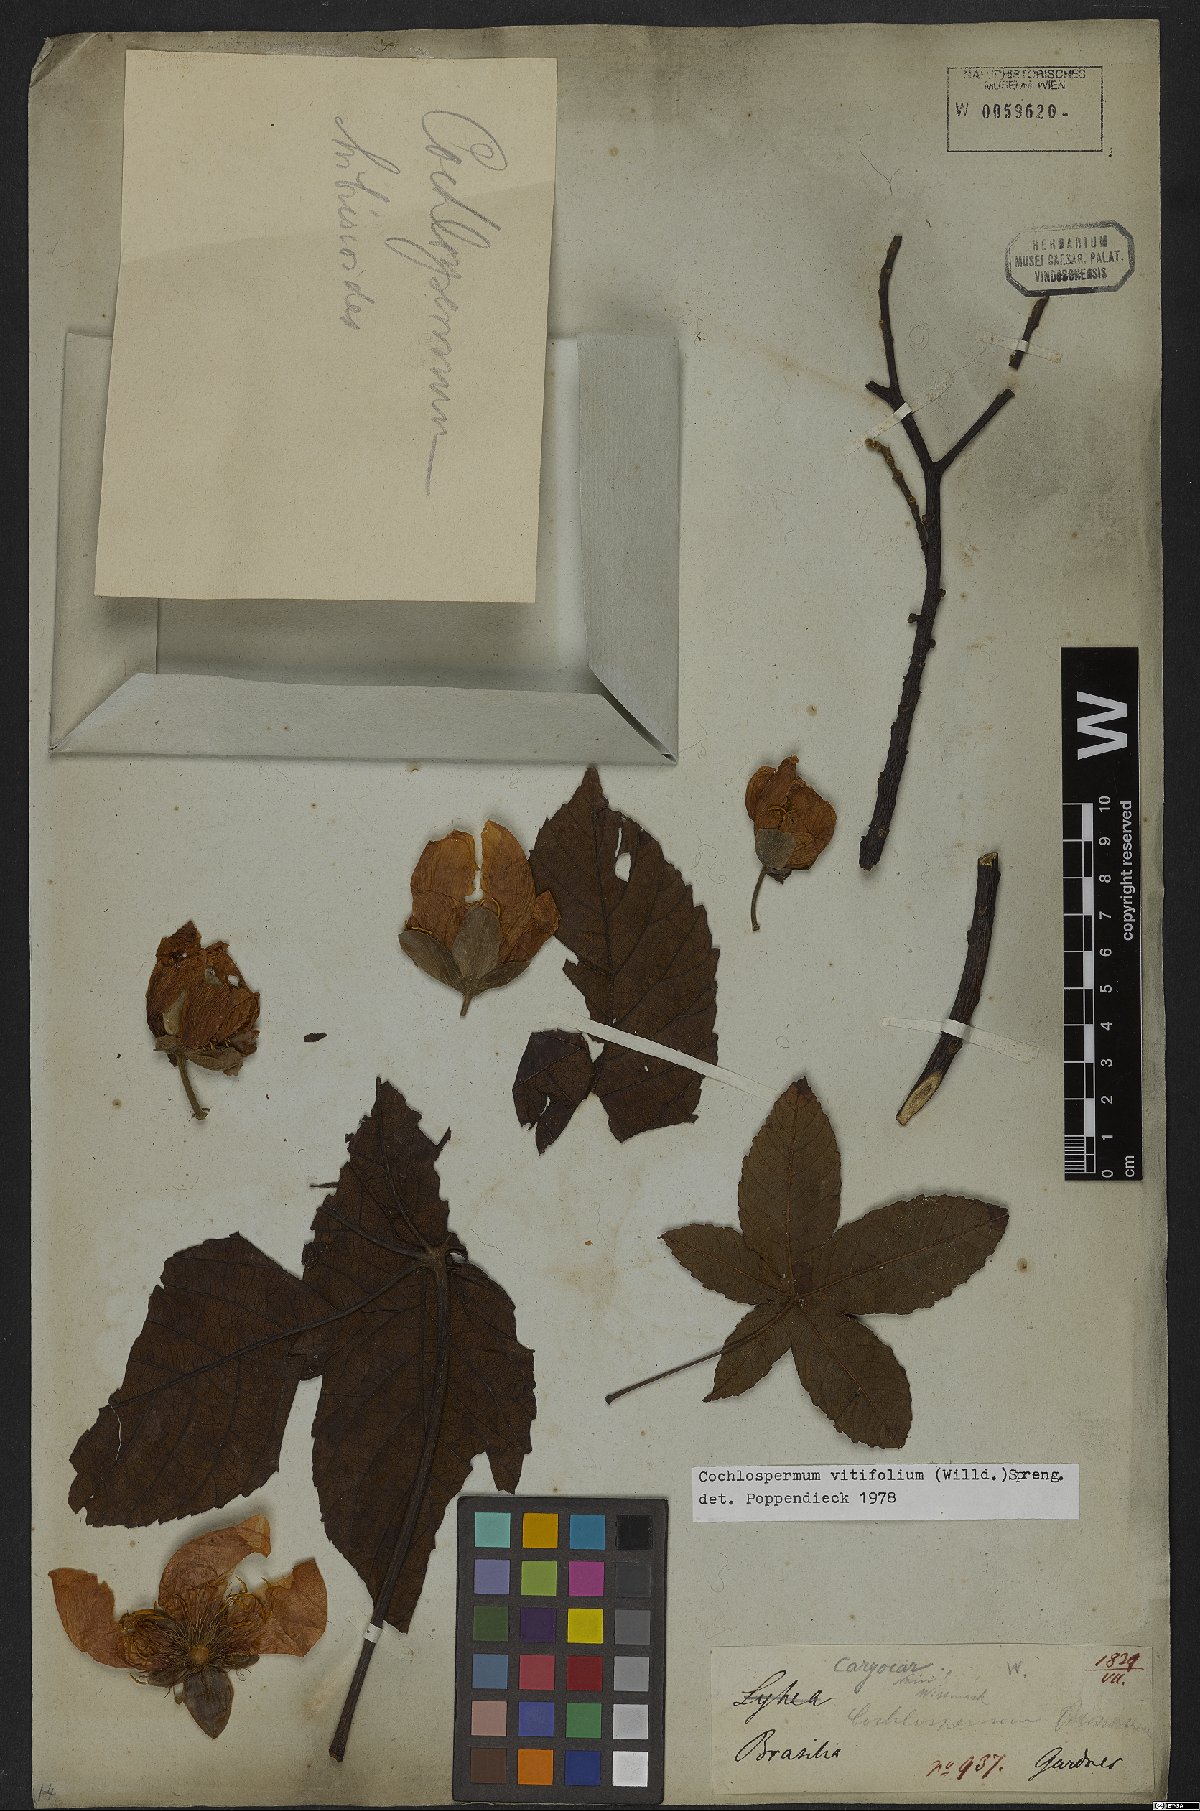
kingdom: Plantae
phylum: Tracheophyta
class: Magnoliopsida
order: Malvales
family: Cochlospermaceae
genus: Cochlospermum
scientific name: Cochlospermum vitifolium
